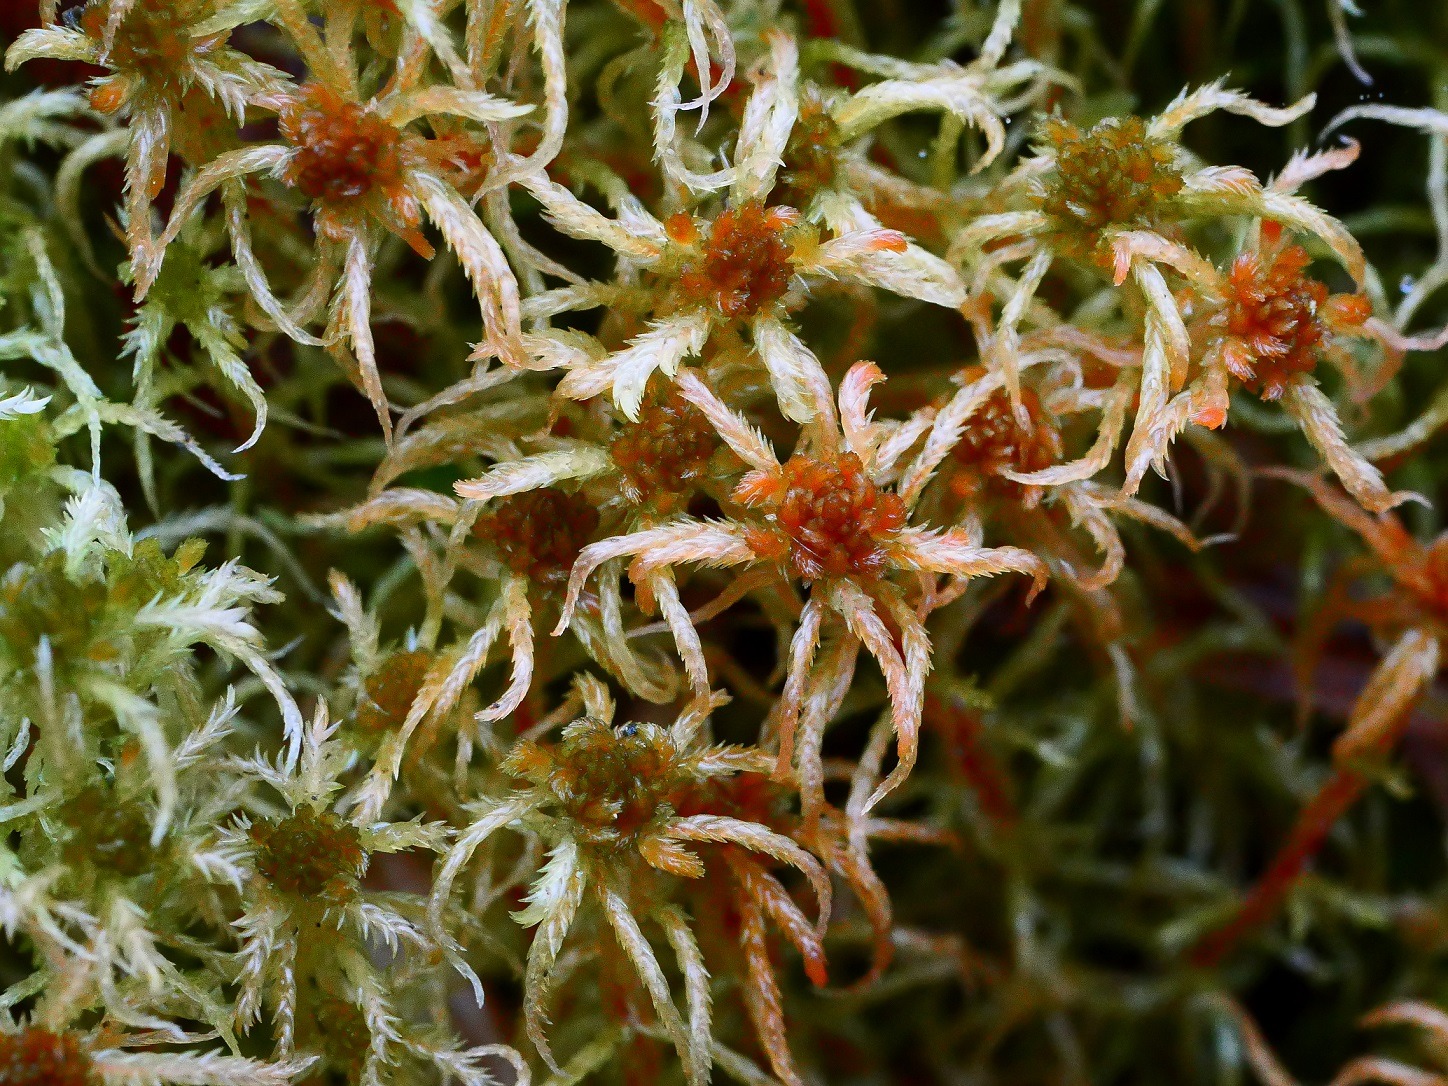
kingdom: Plantae
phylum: Bryophyta
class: Sphagnopsida
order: Sphagnales
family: Sphagnaceae
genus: Sphagnum
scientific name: Sphagnum contortum
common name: Krumbladet tørvemos
